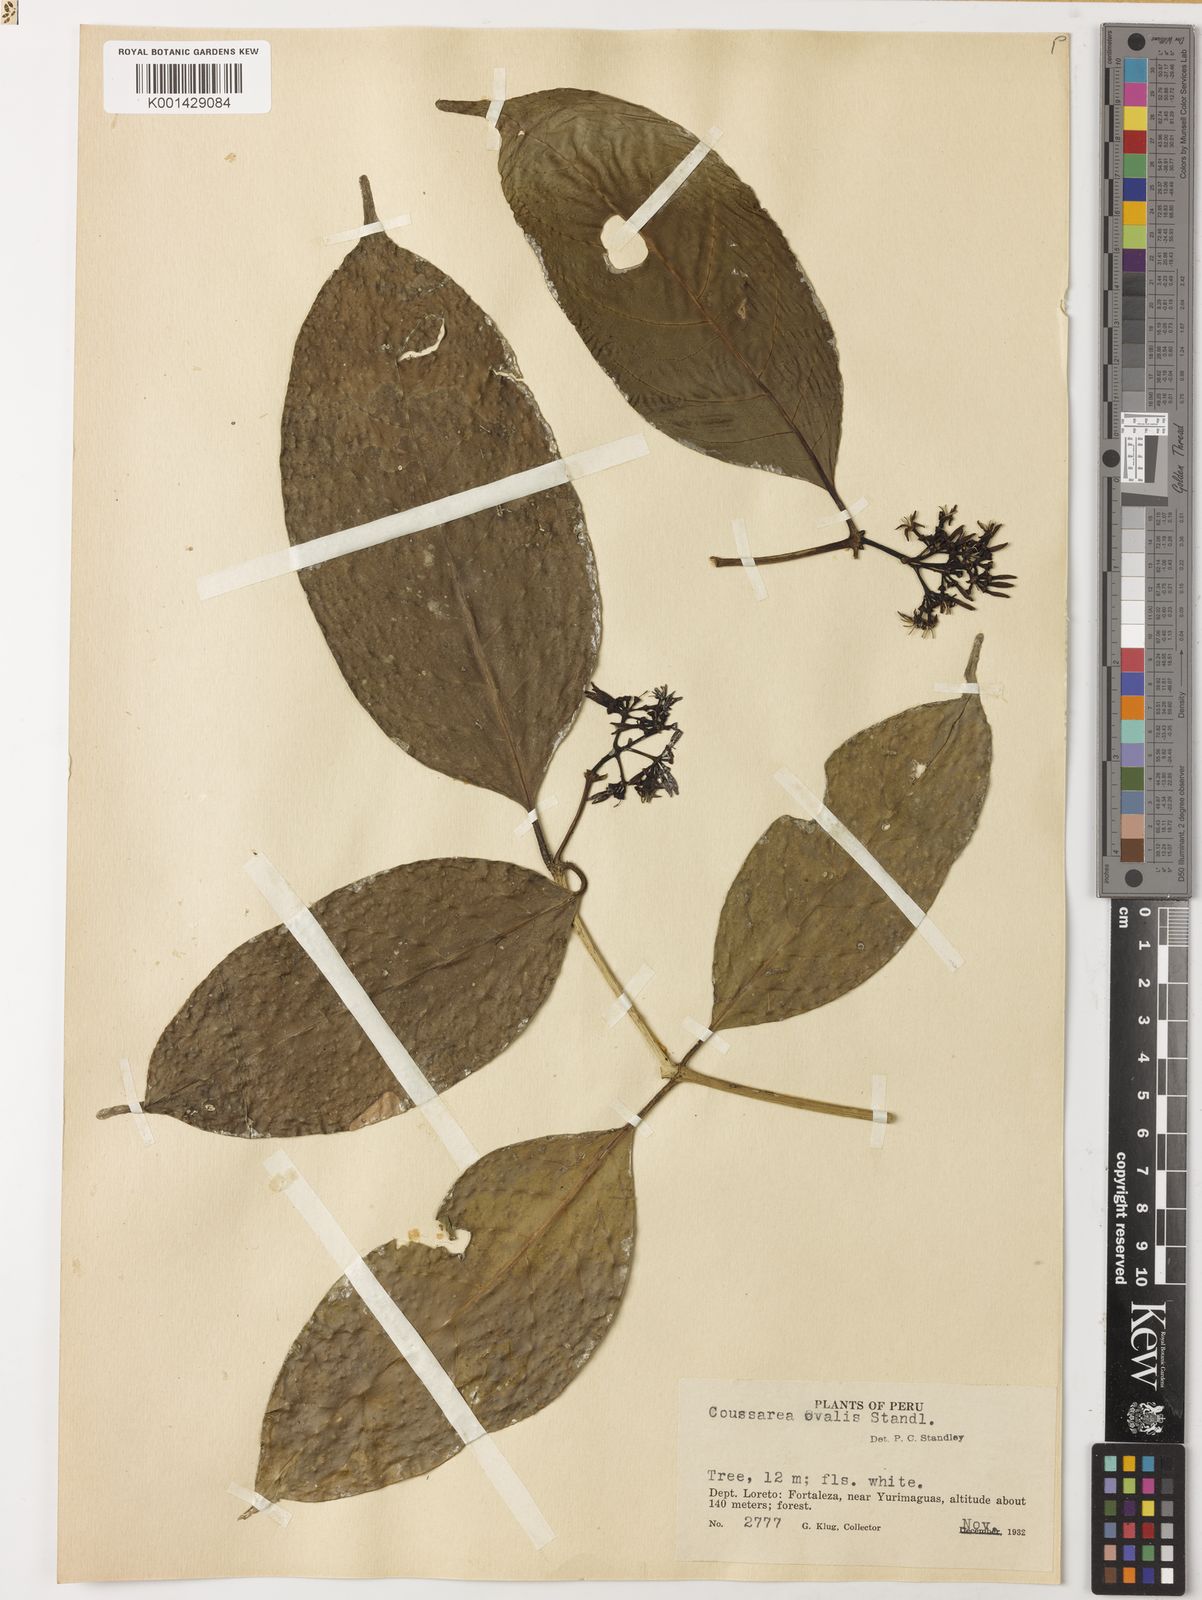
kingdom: Plantae
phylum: Tracheophyta
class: Magnoliopsida
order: Gentianales
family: Rubiaceae
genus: Coussarea
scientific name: Coussarea ovalis
